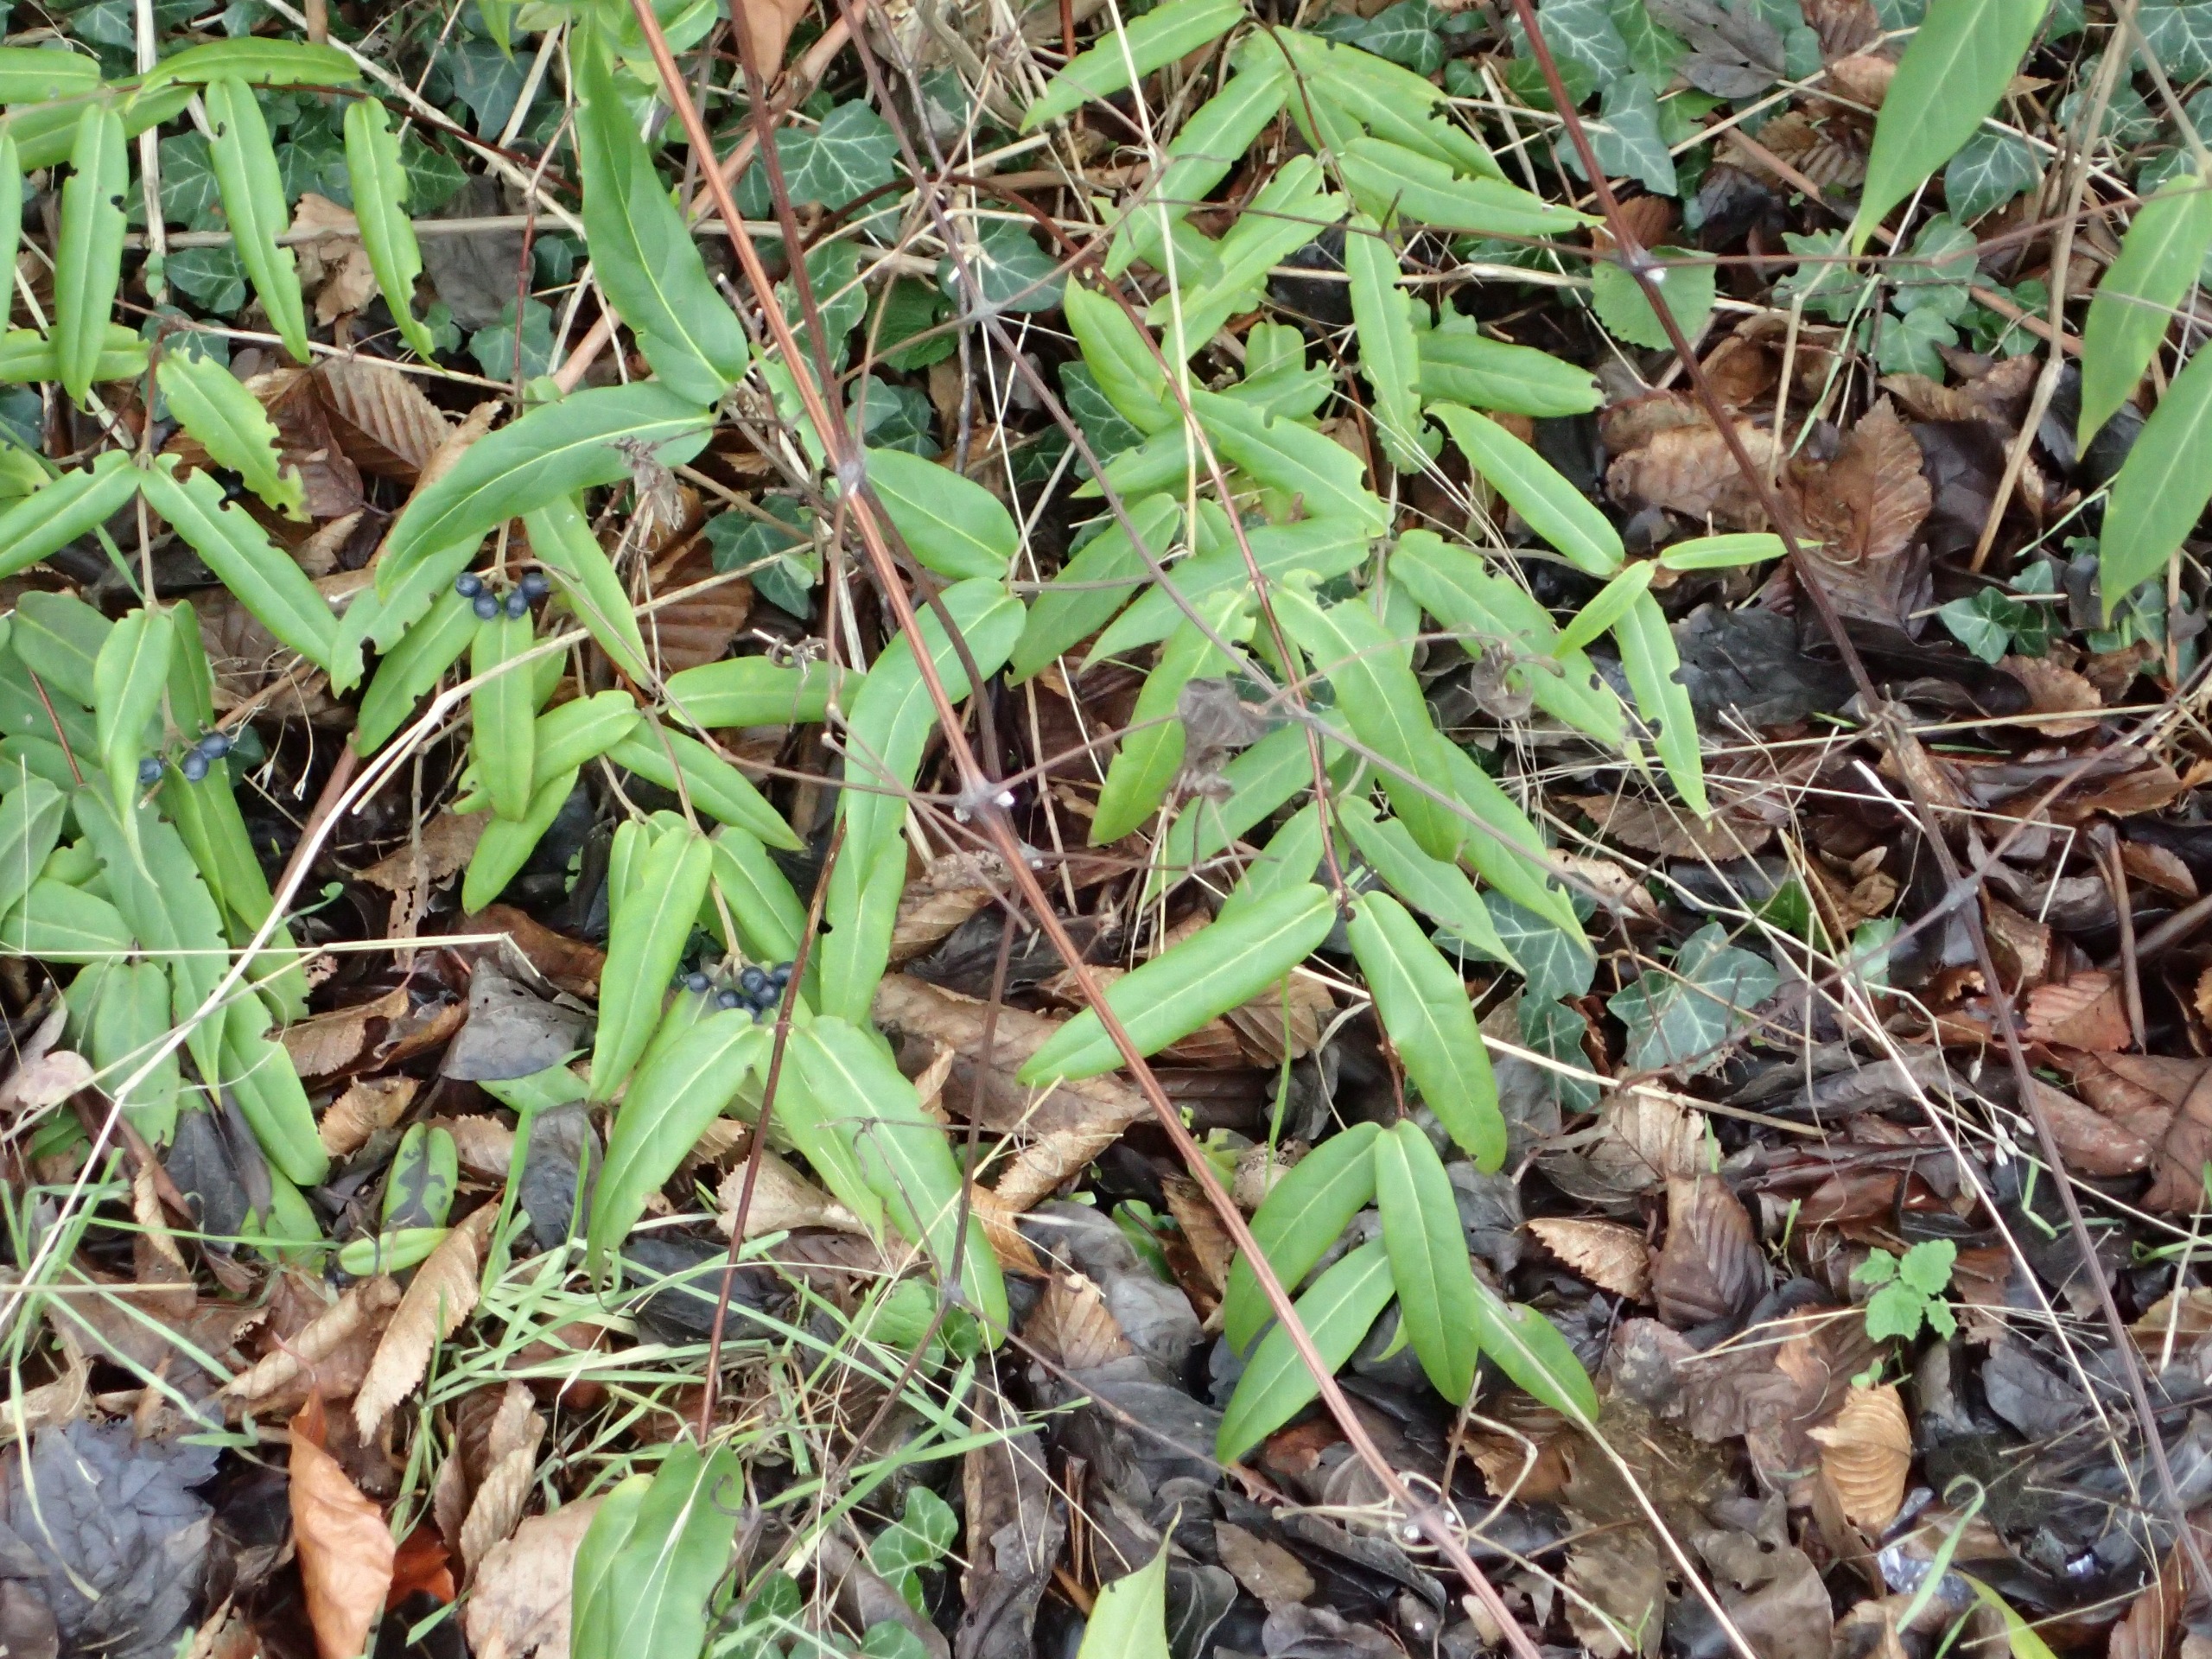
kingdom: Plantae
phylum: Tracheophyta
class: Magnoliopsida
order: Dipsacales
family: Caprifoliaceae
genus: Lonicera
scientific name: Lonicera acuminata
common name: Henrys gedeblad
